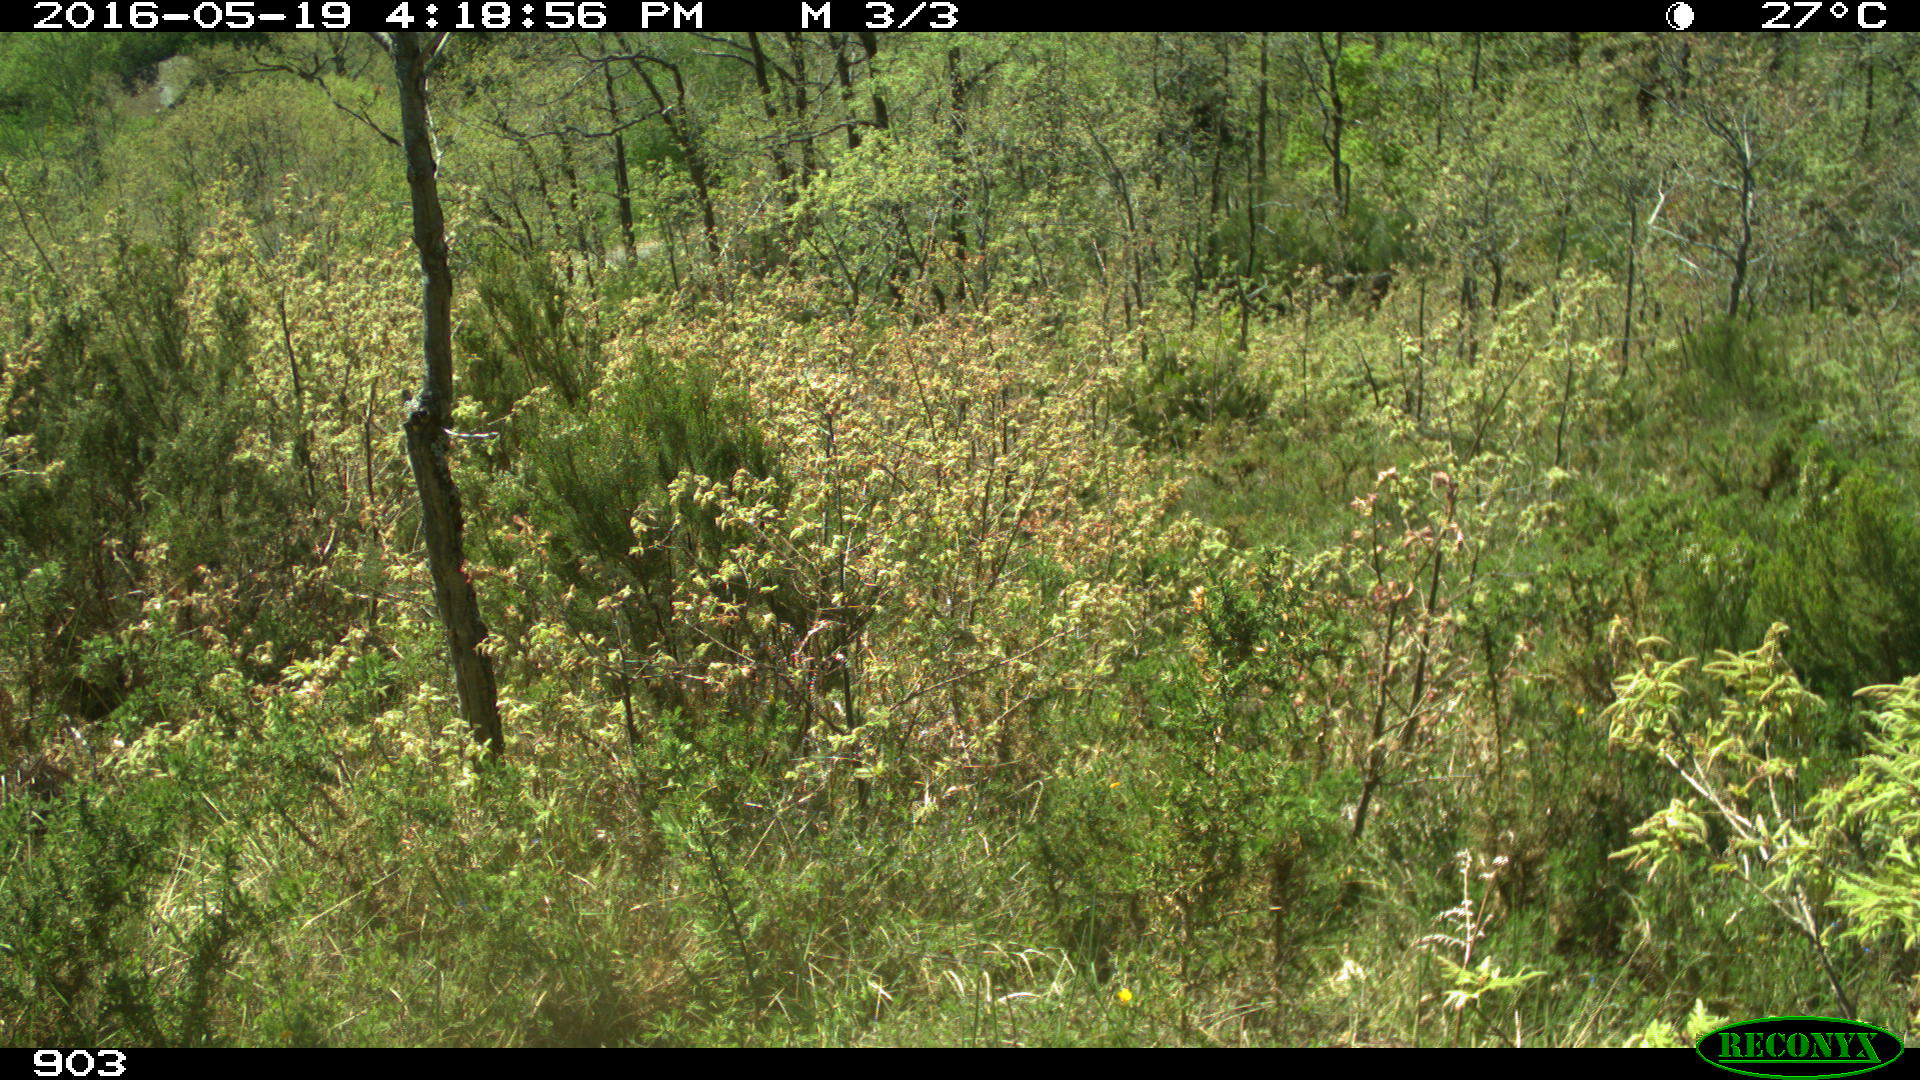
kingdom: Animalia
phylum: Chordata
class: Mammalia
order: Carnivora
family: Canidae
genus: Vulpes
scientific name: Vulpes vulpes
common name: Red fox
